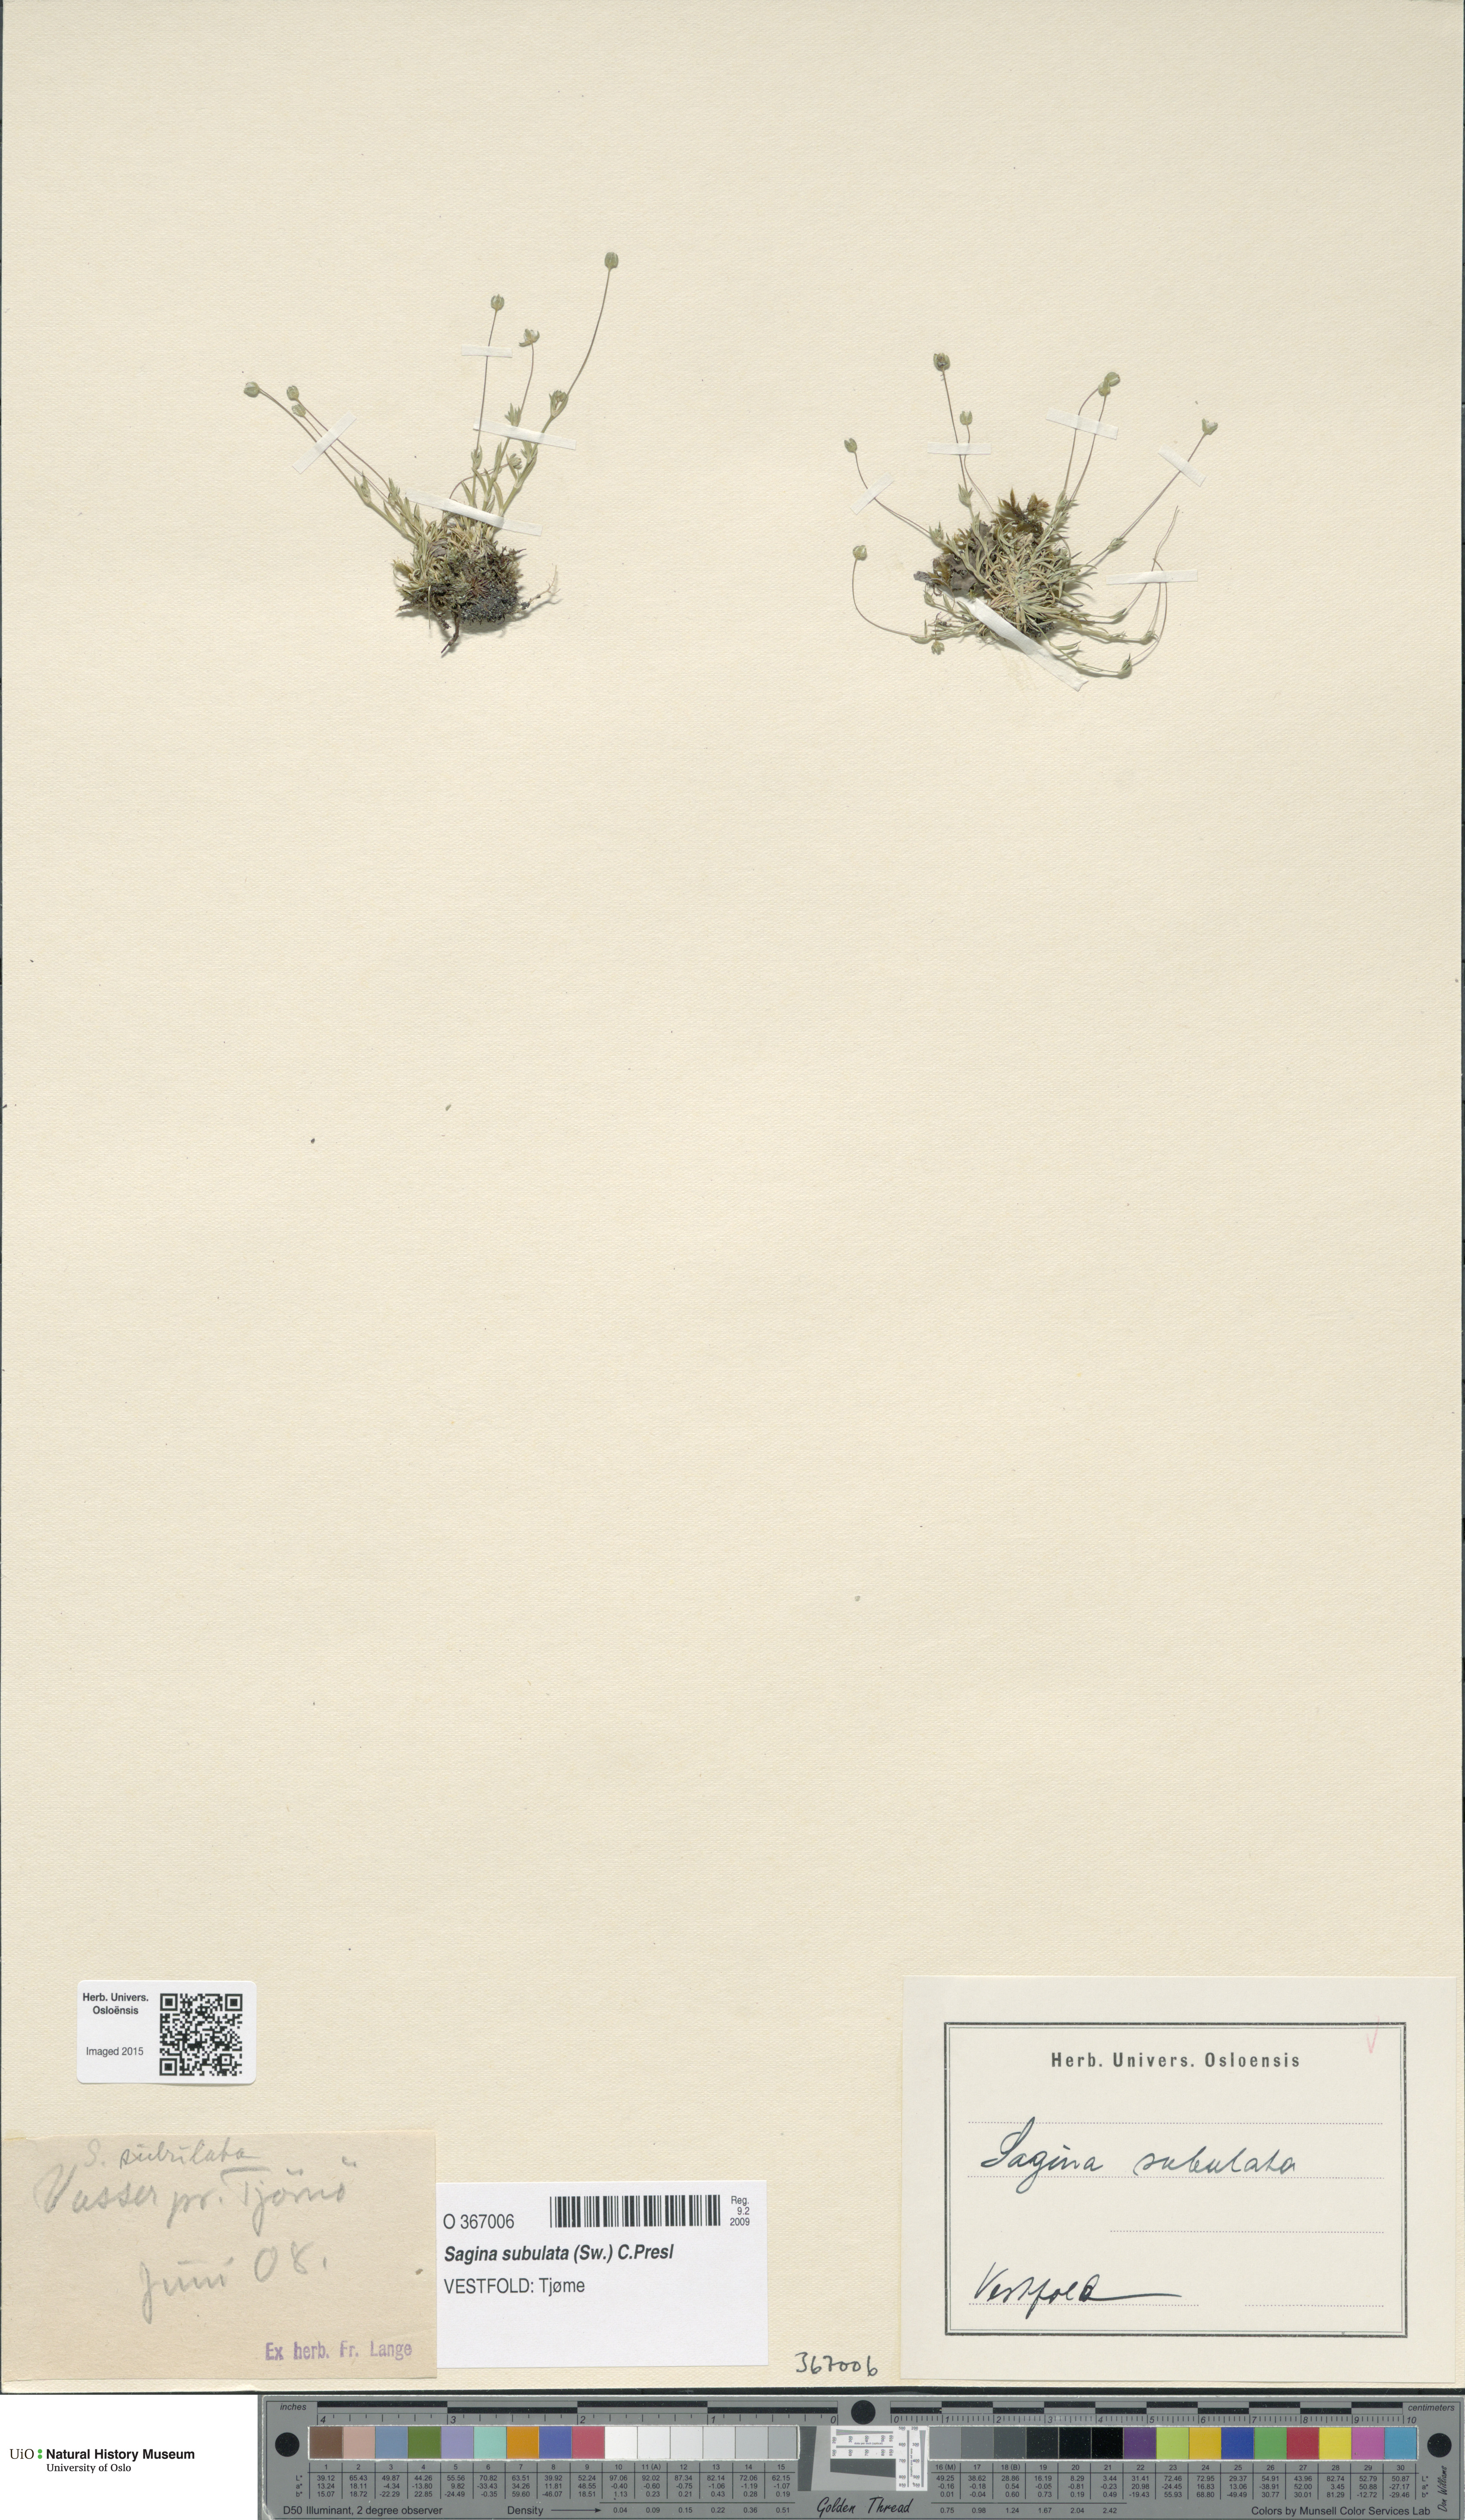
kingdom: Plantae
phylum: Tracheophyta
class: Magnoliopsida
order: Caryophyllales
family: Caryophyllaceae
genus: Sagina
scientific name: Sagina alexandrae
